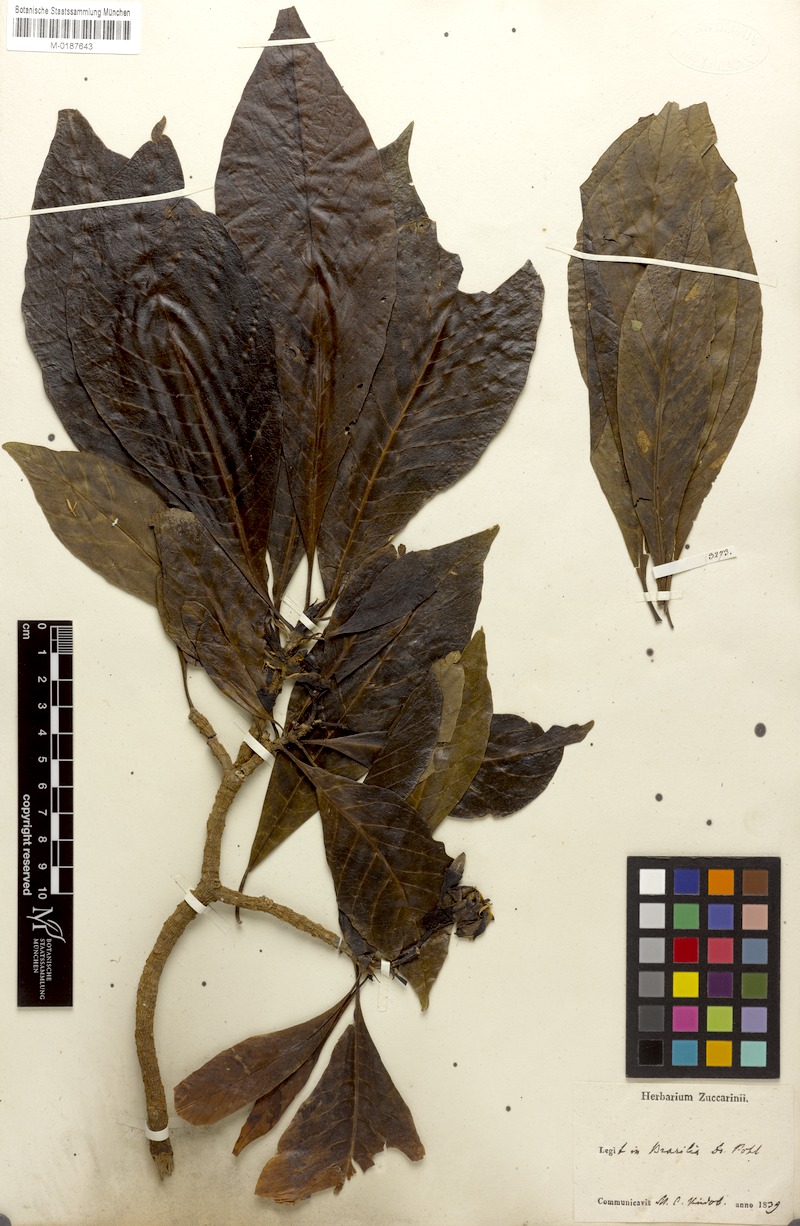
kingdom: Plantae
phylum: Tracheophyta
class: Magnoliopsida
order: Gentianales
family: Rubiaceae
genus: Genipa
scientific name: Genipa americana
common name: Genipap
